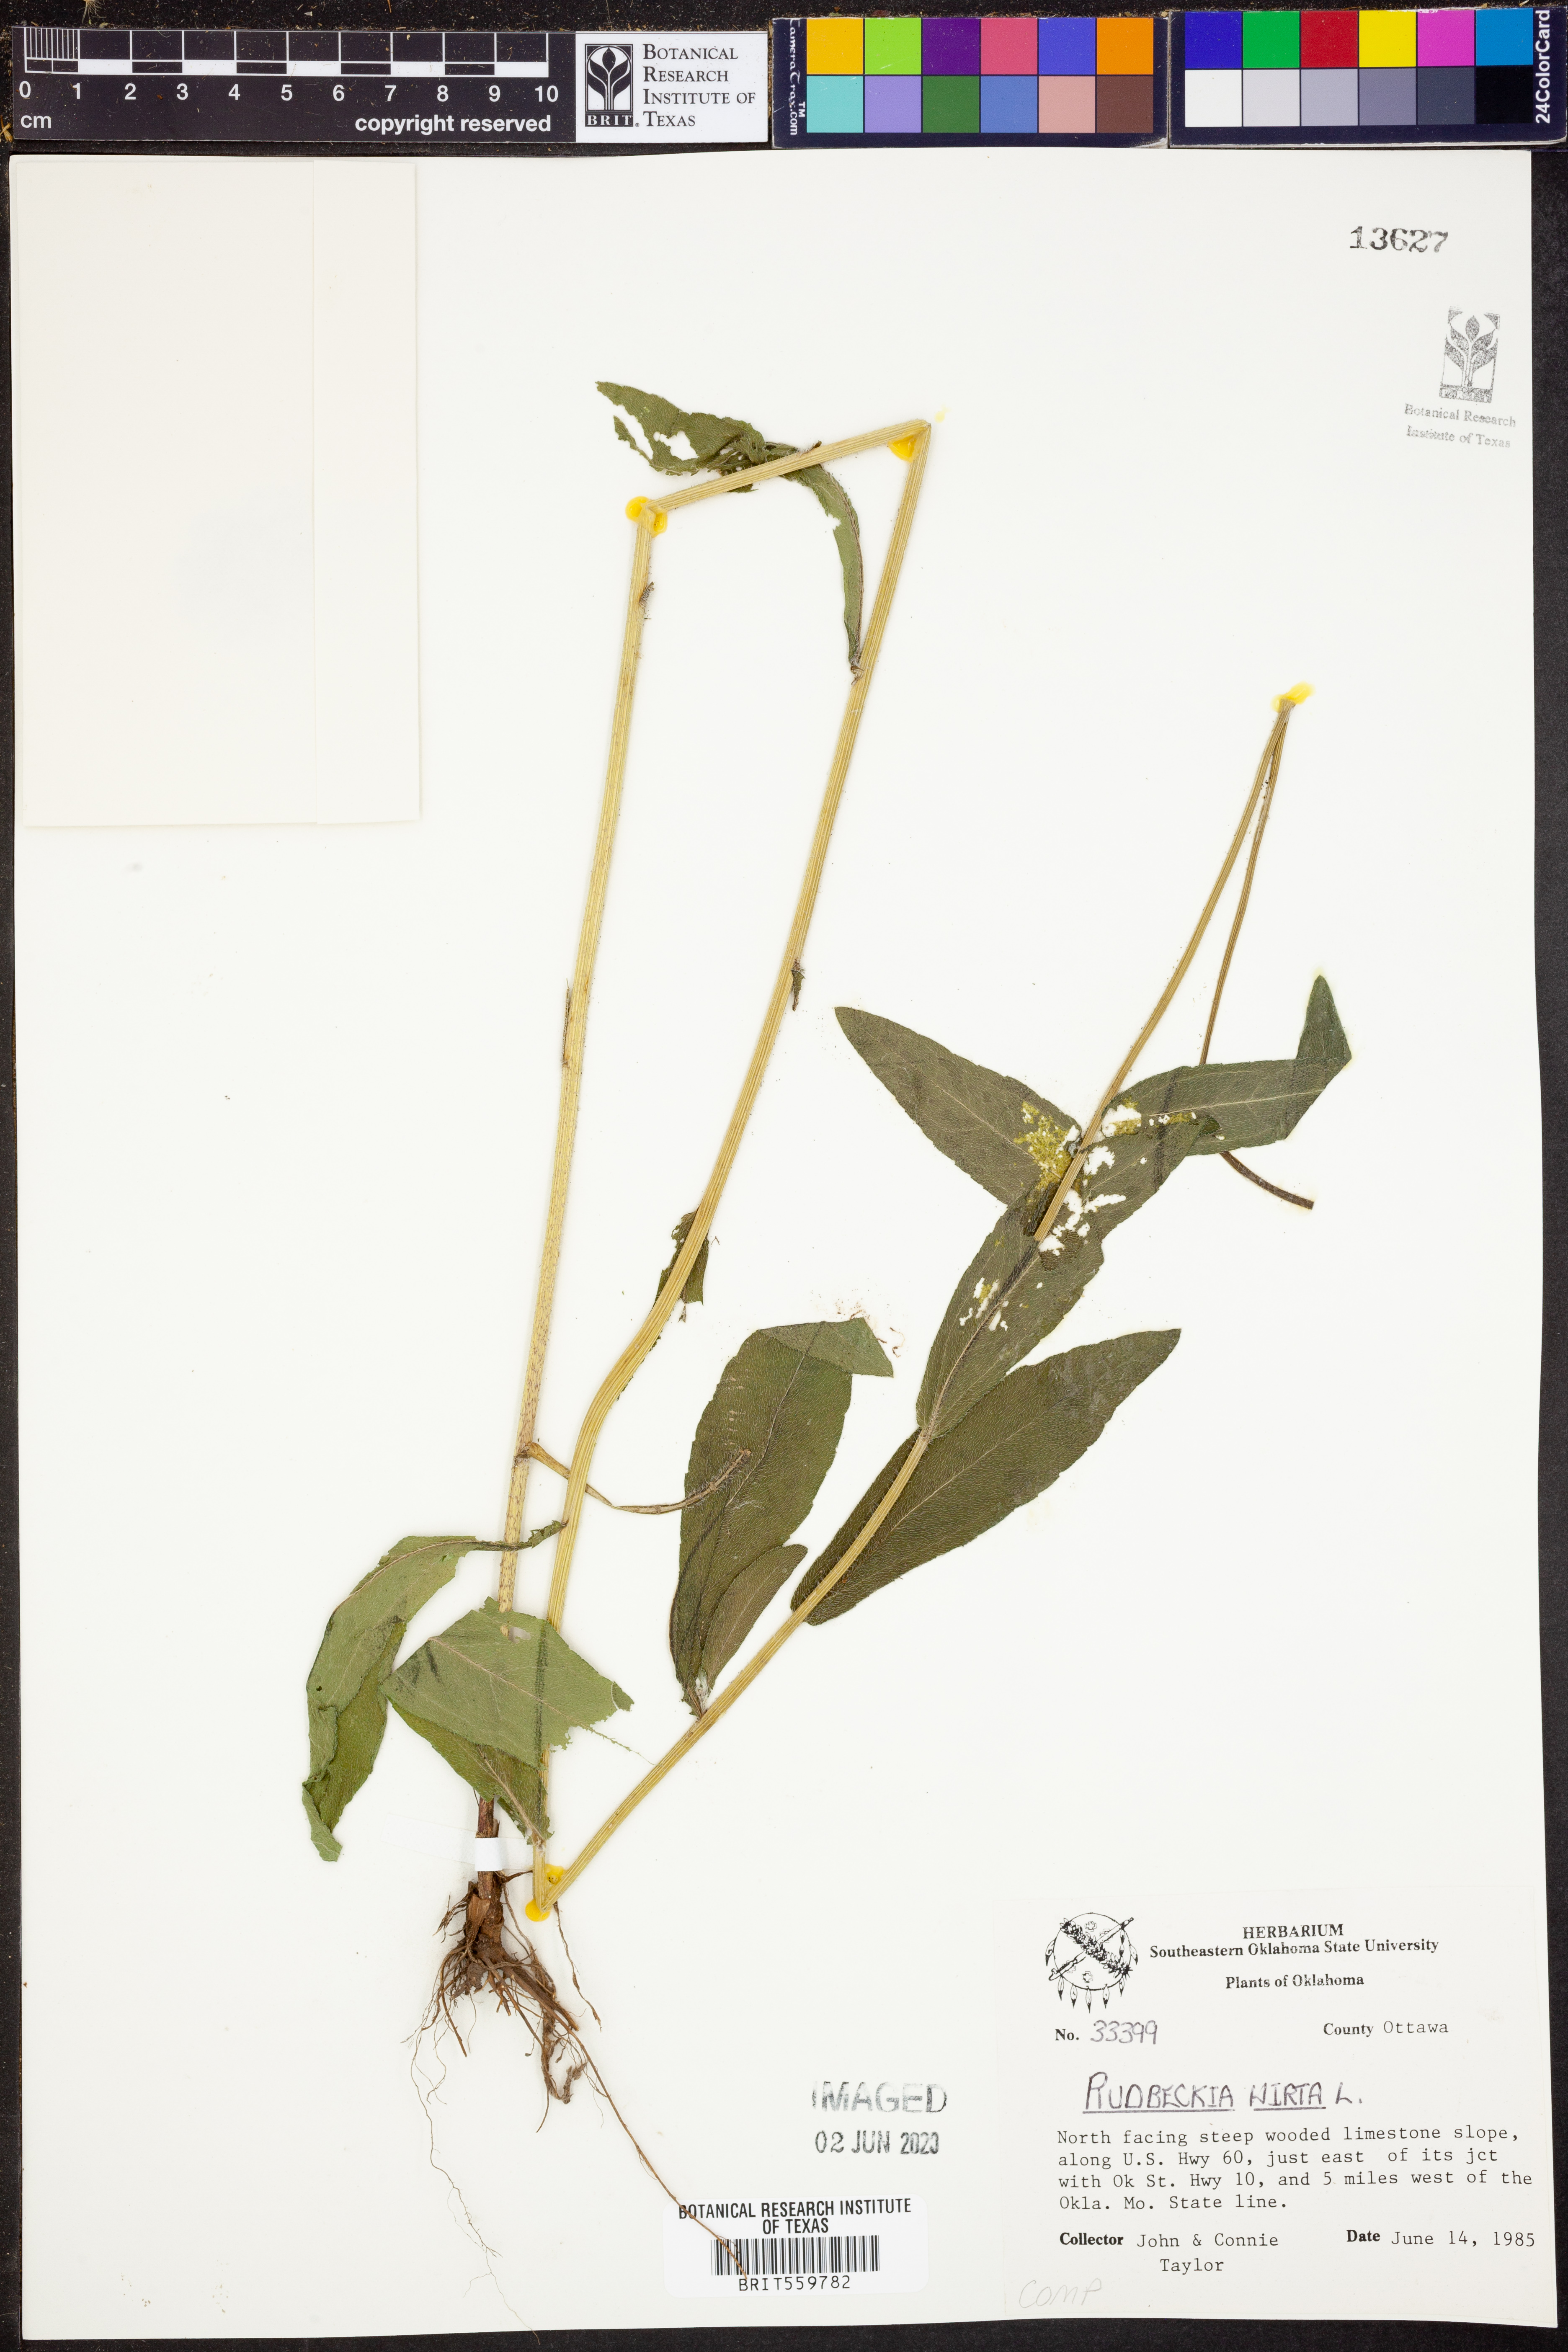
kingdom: Plantae
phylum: Tracheophyta
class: Magnoliopsida
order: Asterales
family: Asteraceae
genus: Rudbeckia
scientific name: Rudbeckia hirta
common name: Black-eyed-susan
